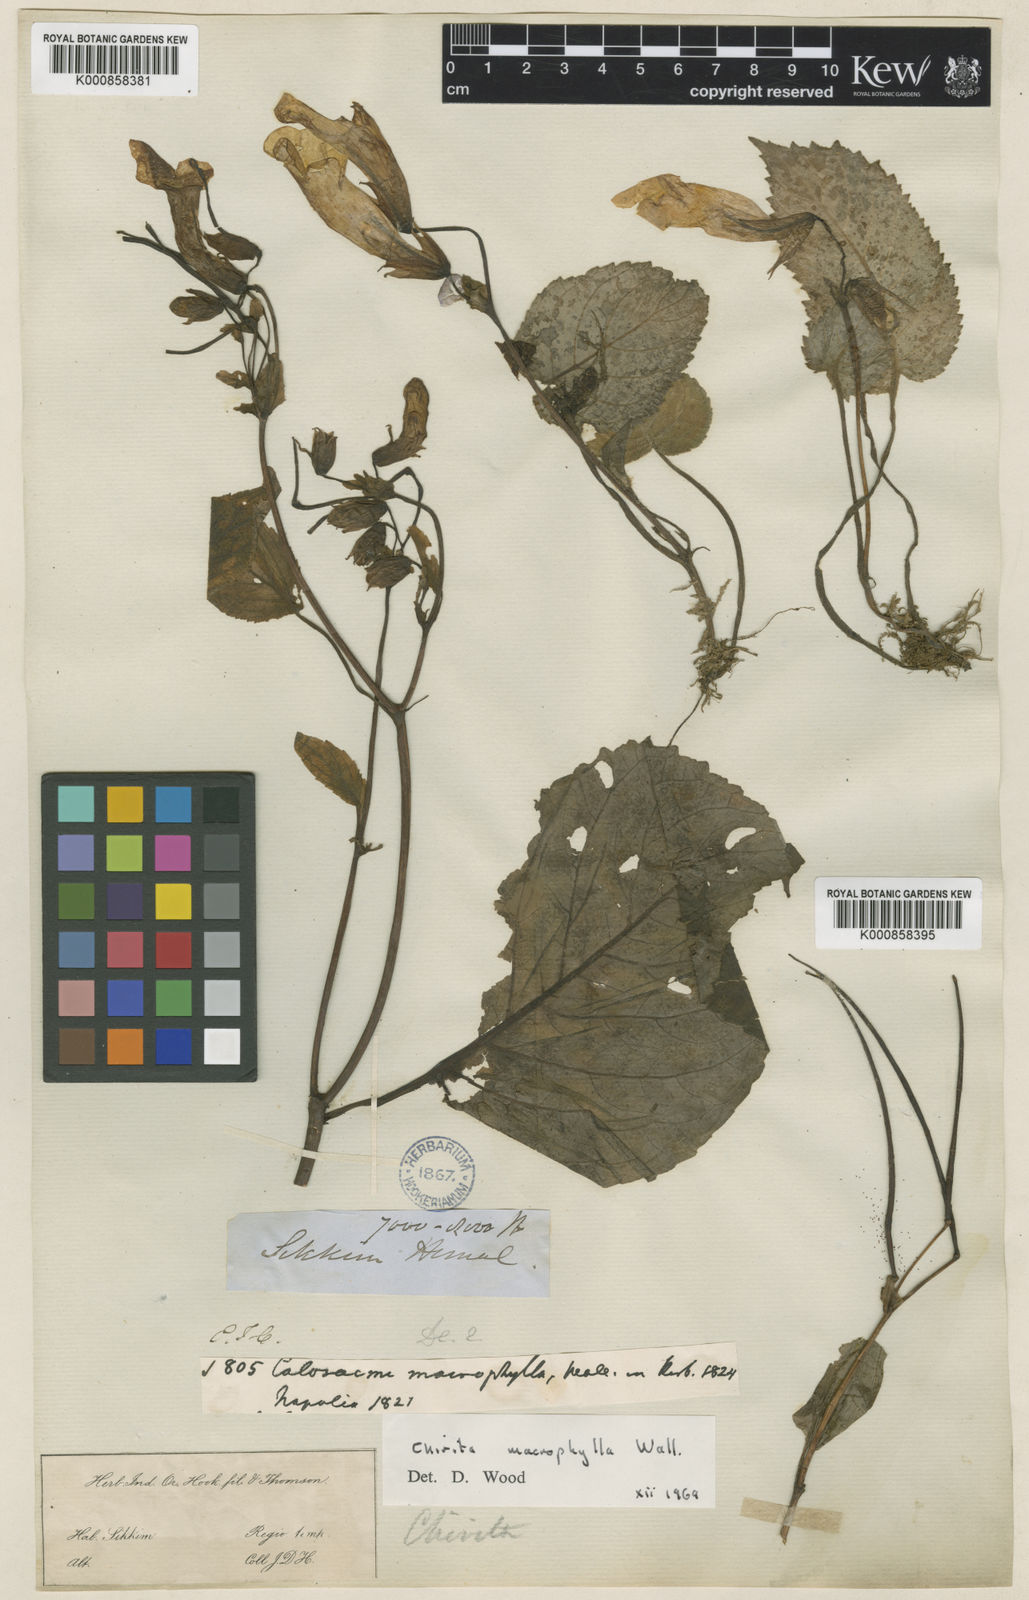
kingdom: Plantae
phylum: Tracheophyta
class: Magnoliopsida
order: Lamiales
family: Gesneriaceae
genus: Henckelia
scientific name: Henckelia grandifolia
